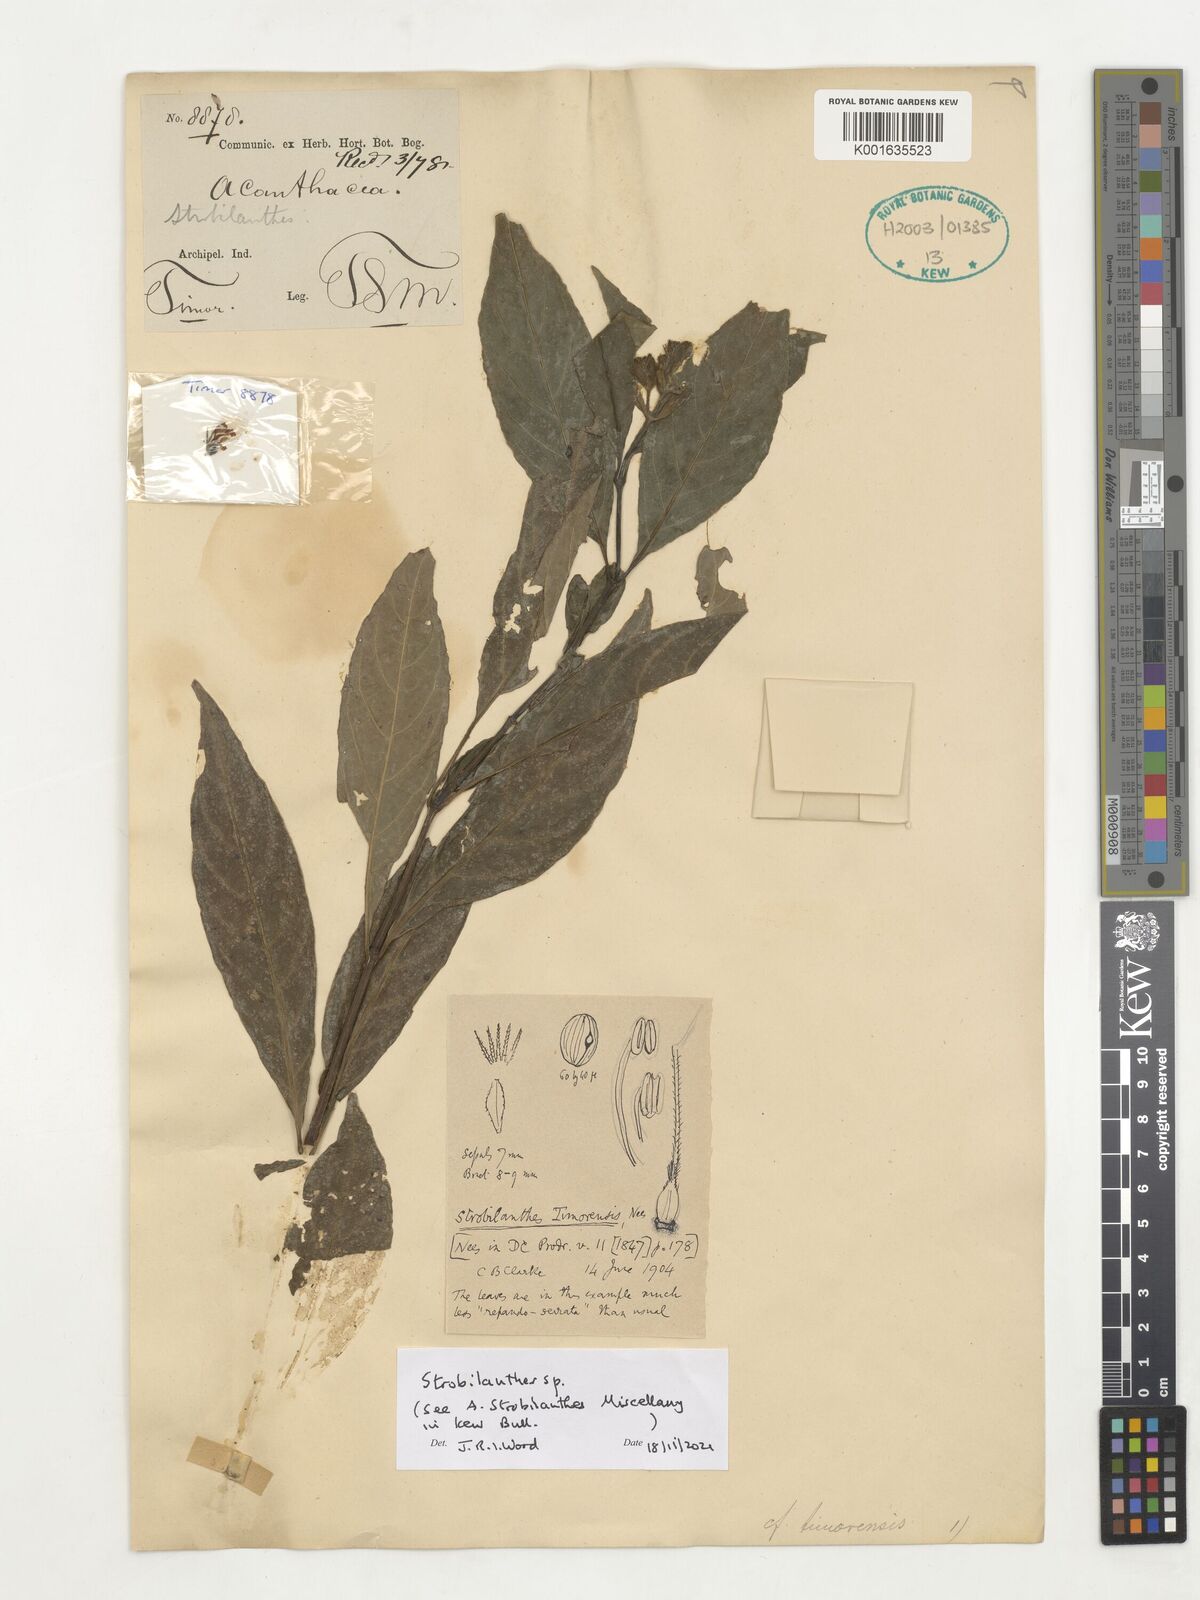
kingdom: Plantae
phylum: Tracheophyta
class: Magnoliopsida
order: Lamiales
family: Acanthaceae
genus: Strobilanthes
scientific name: Strobilanthes
